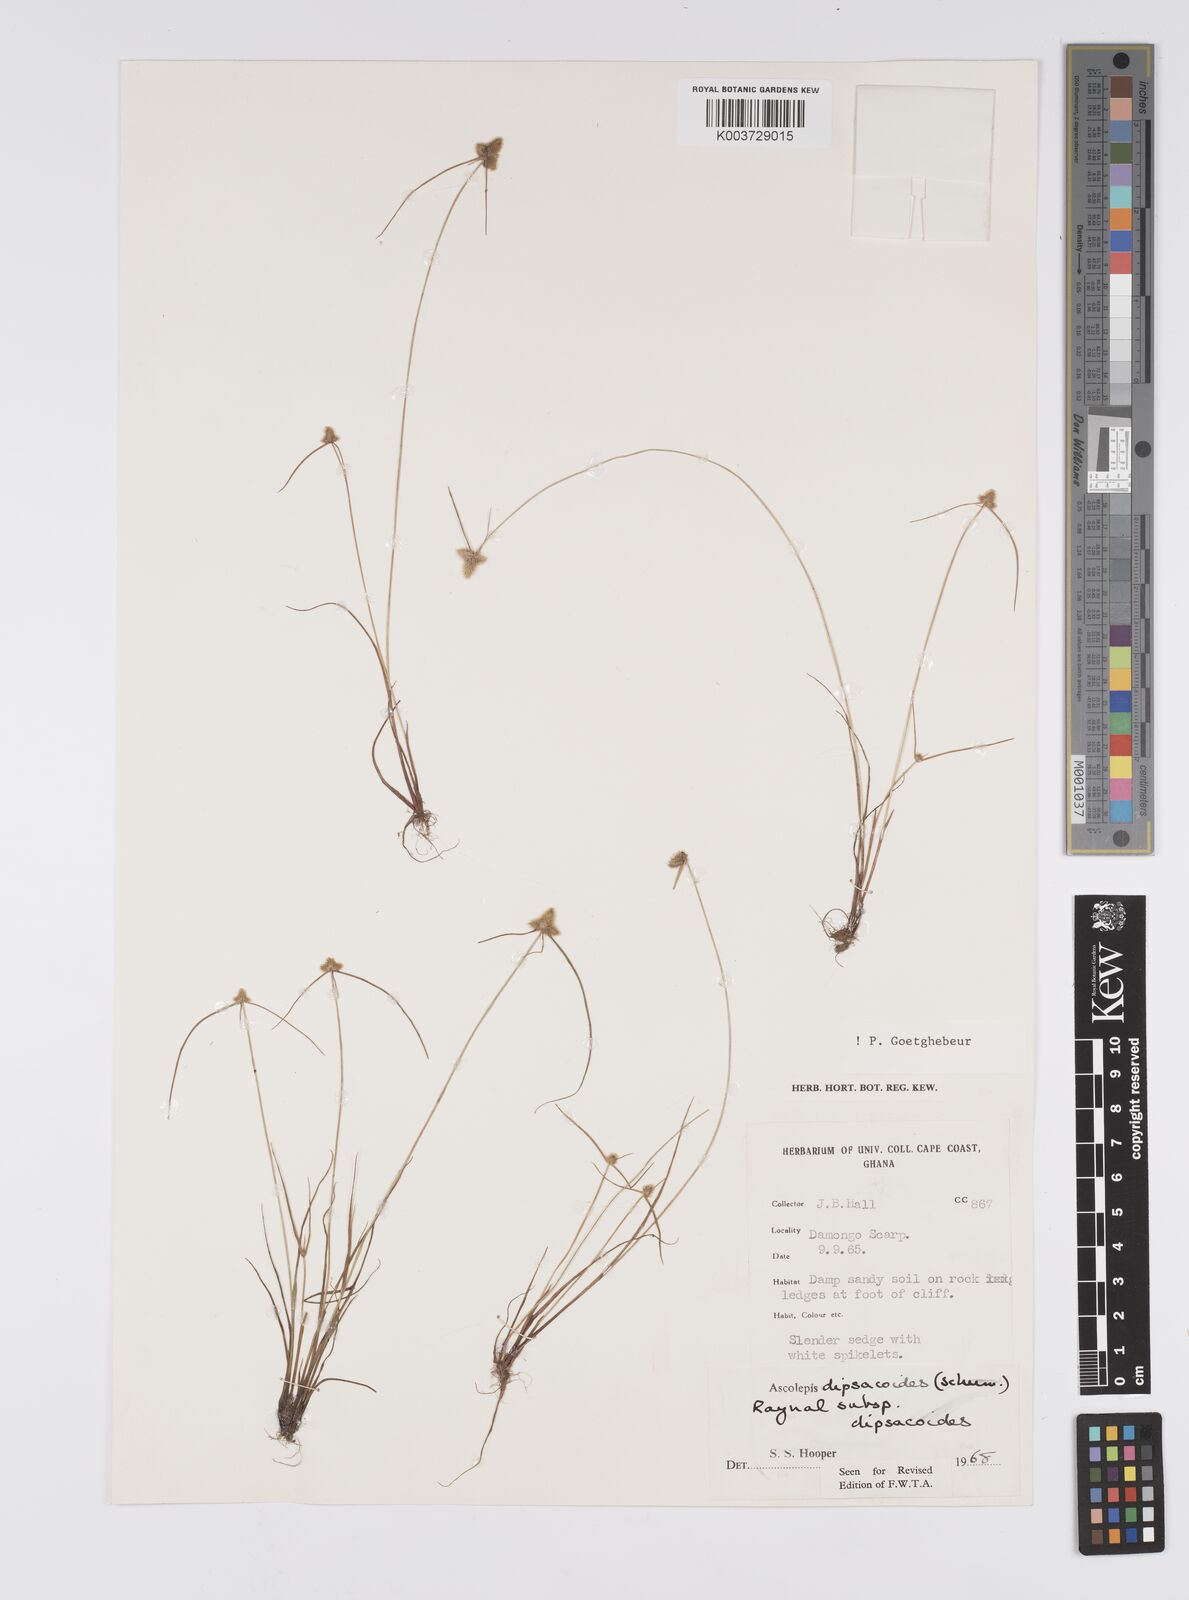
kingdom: Plantae
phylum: Tracheophyta
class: Liliopsida
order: Poales
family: Cyperaceae
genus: Cyperus
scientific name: Cyperus dipsacoides
